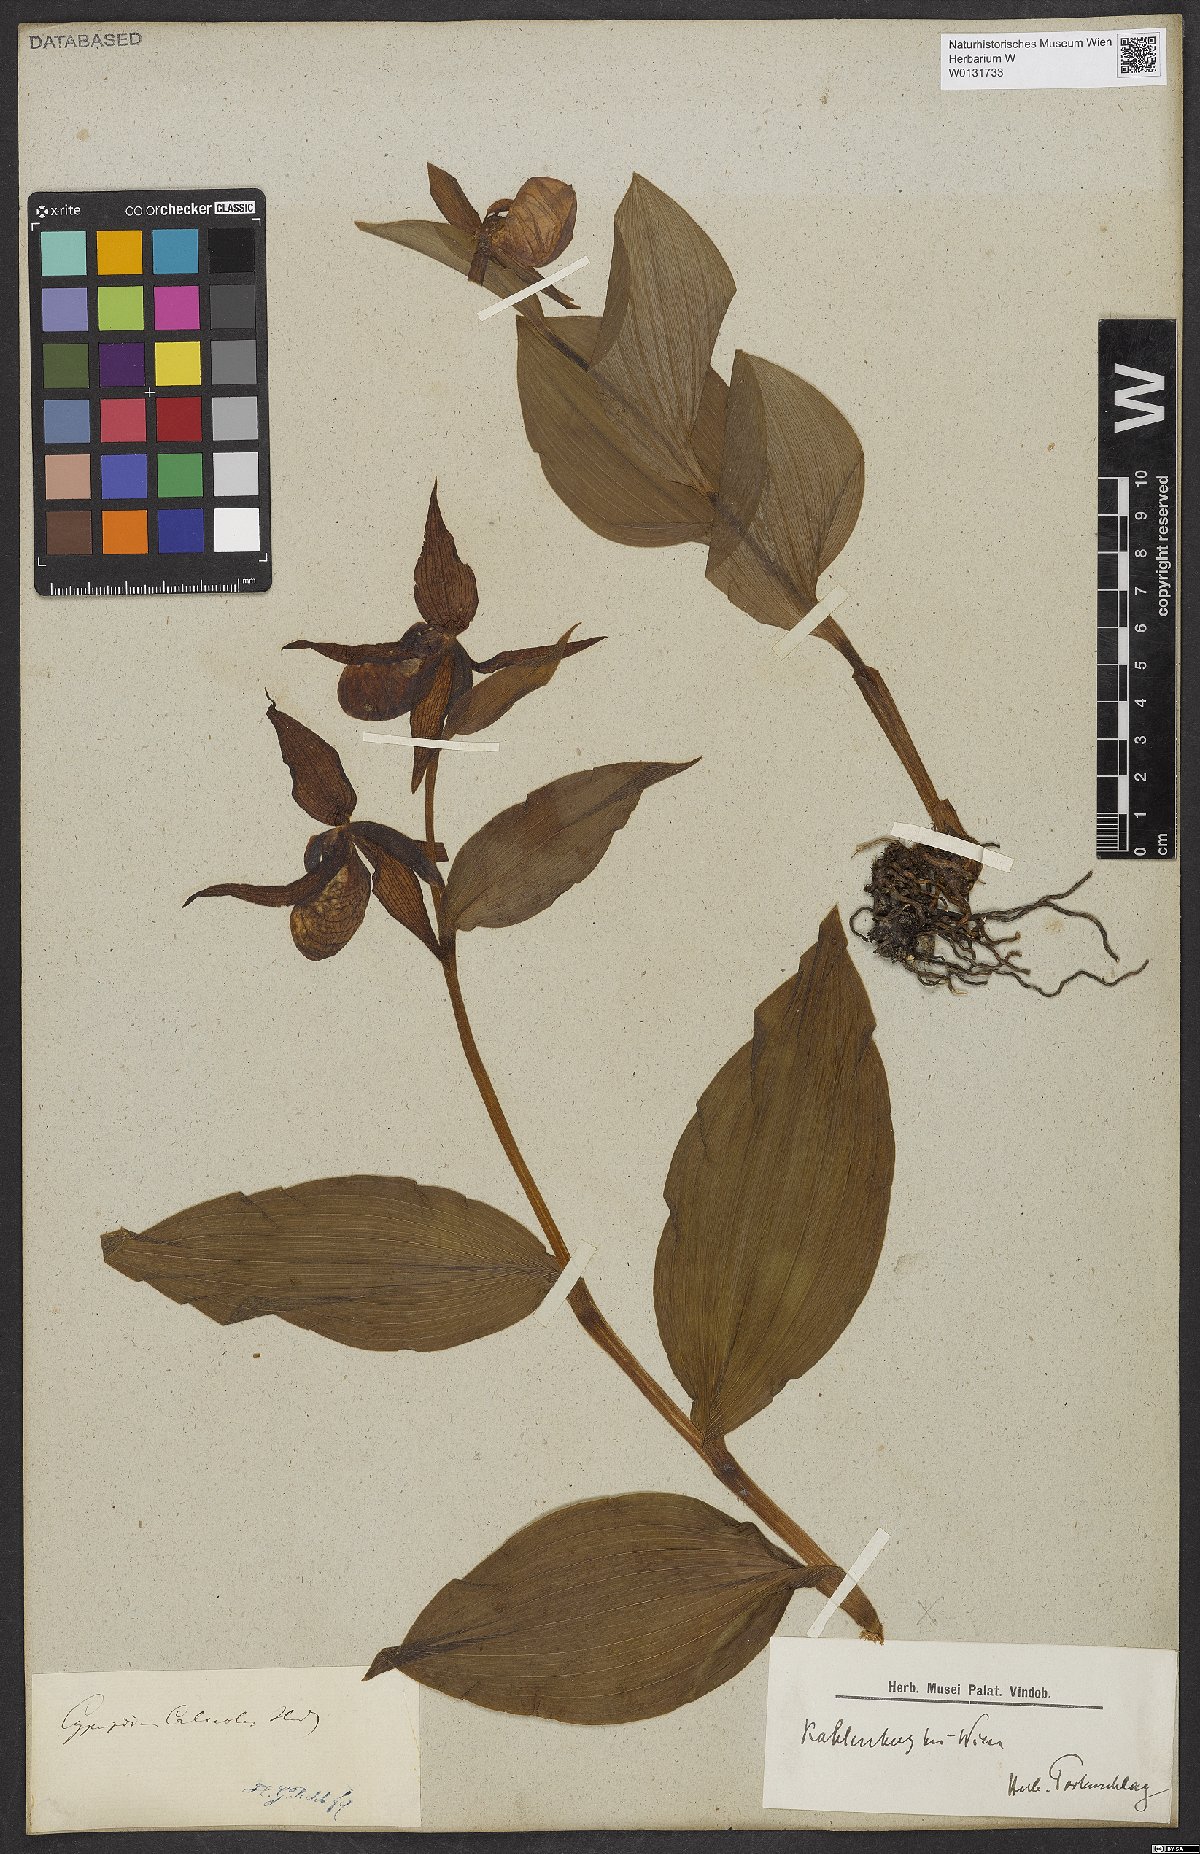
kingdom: Plantae
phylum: Tracheophyta
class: Liliopsida
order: Asparagales
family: Orchidaceae
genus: Cypripedium
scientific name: Cypripedium calceolus
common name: Lady's-slipper
